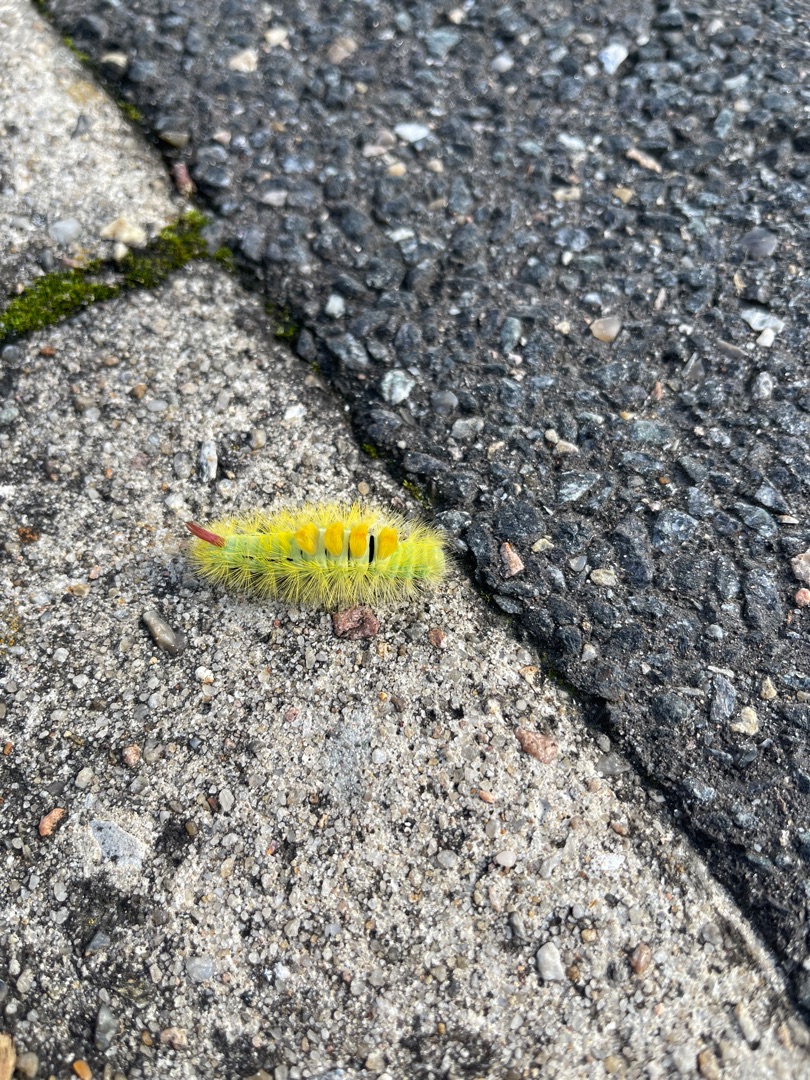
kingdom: Animalia
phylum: Arthropoda
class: Insecta
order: Lepidoptera
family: Erebidae
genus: Calliteara
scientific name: Calliteara pudibunda
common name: Bøgenonne
